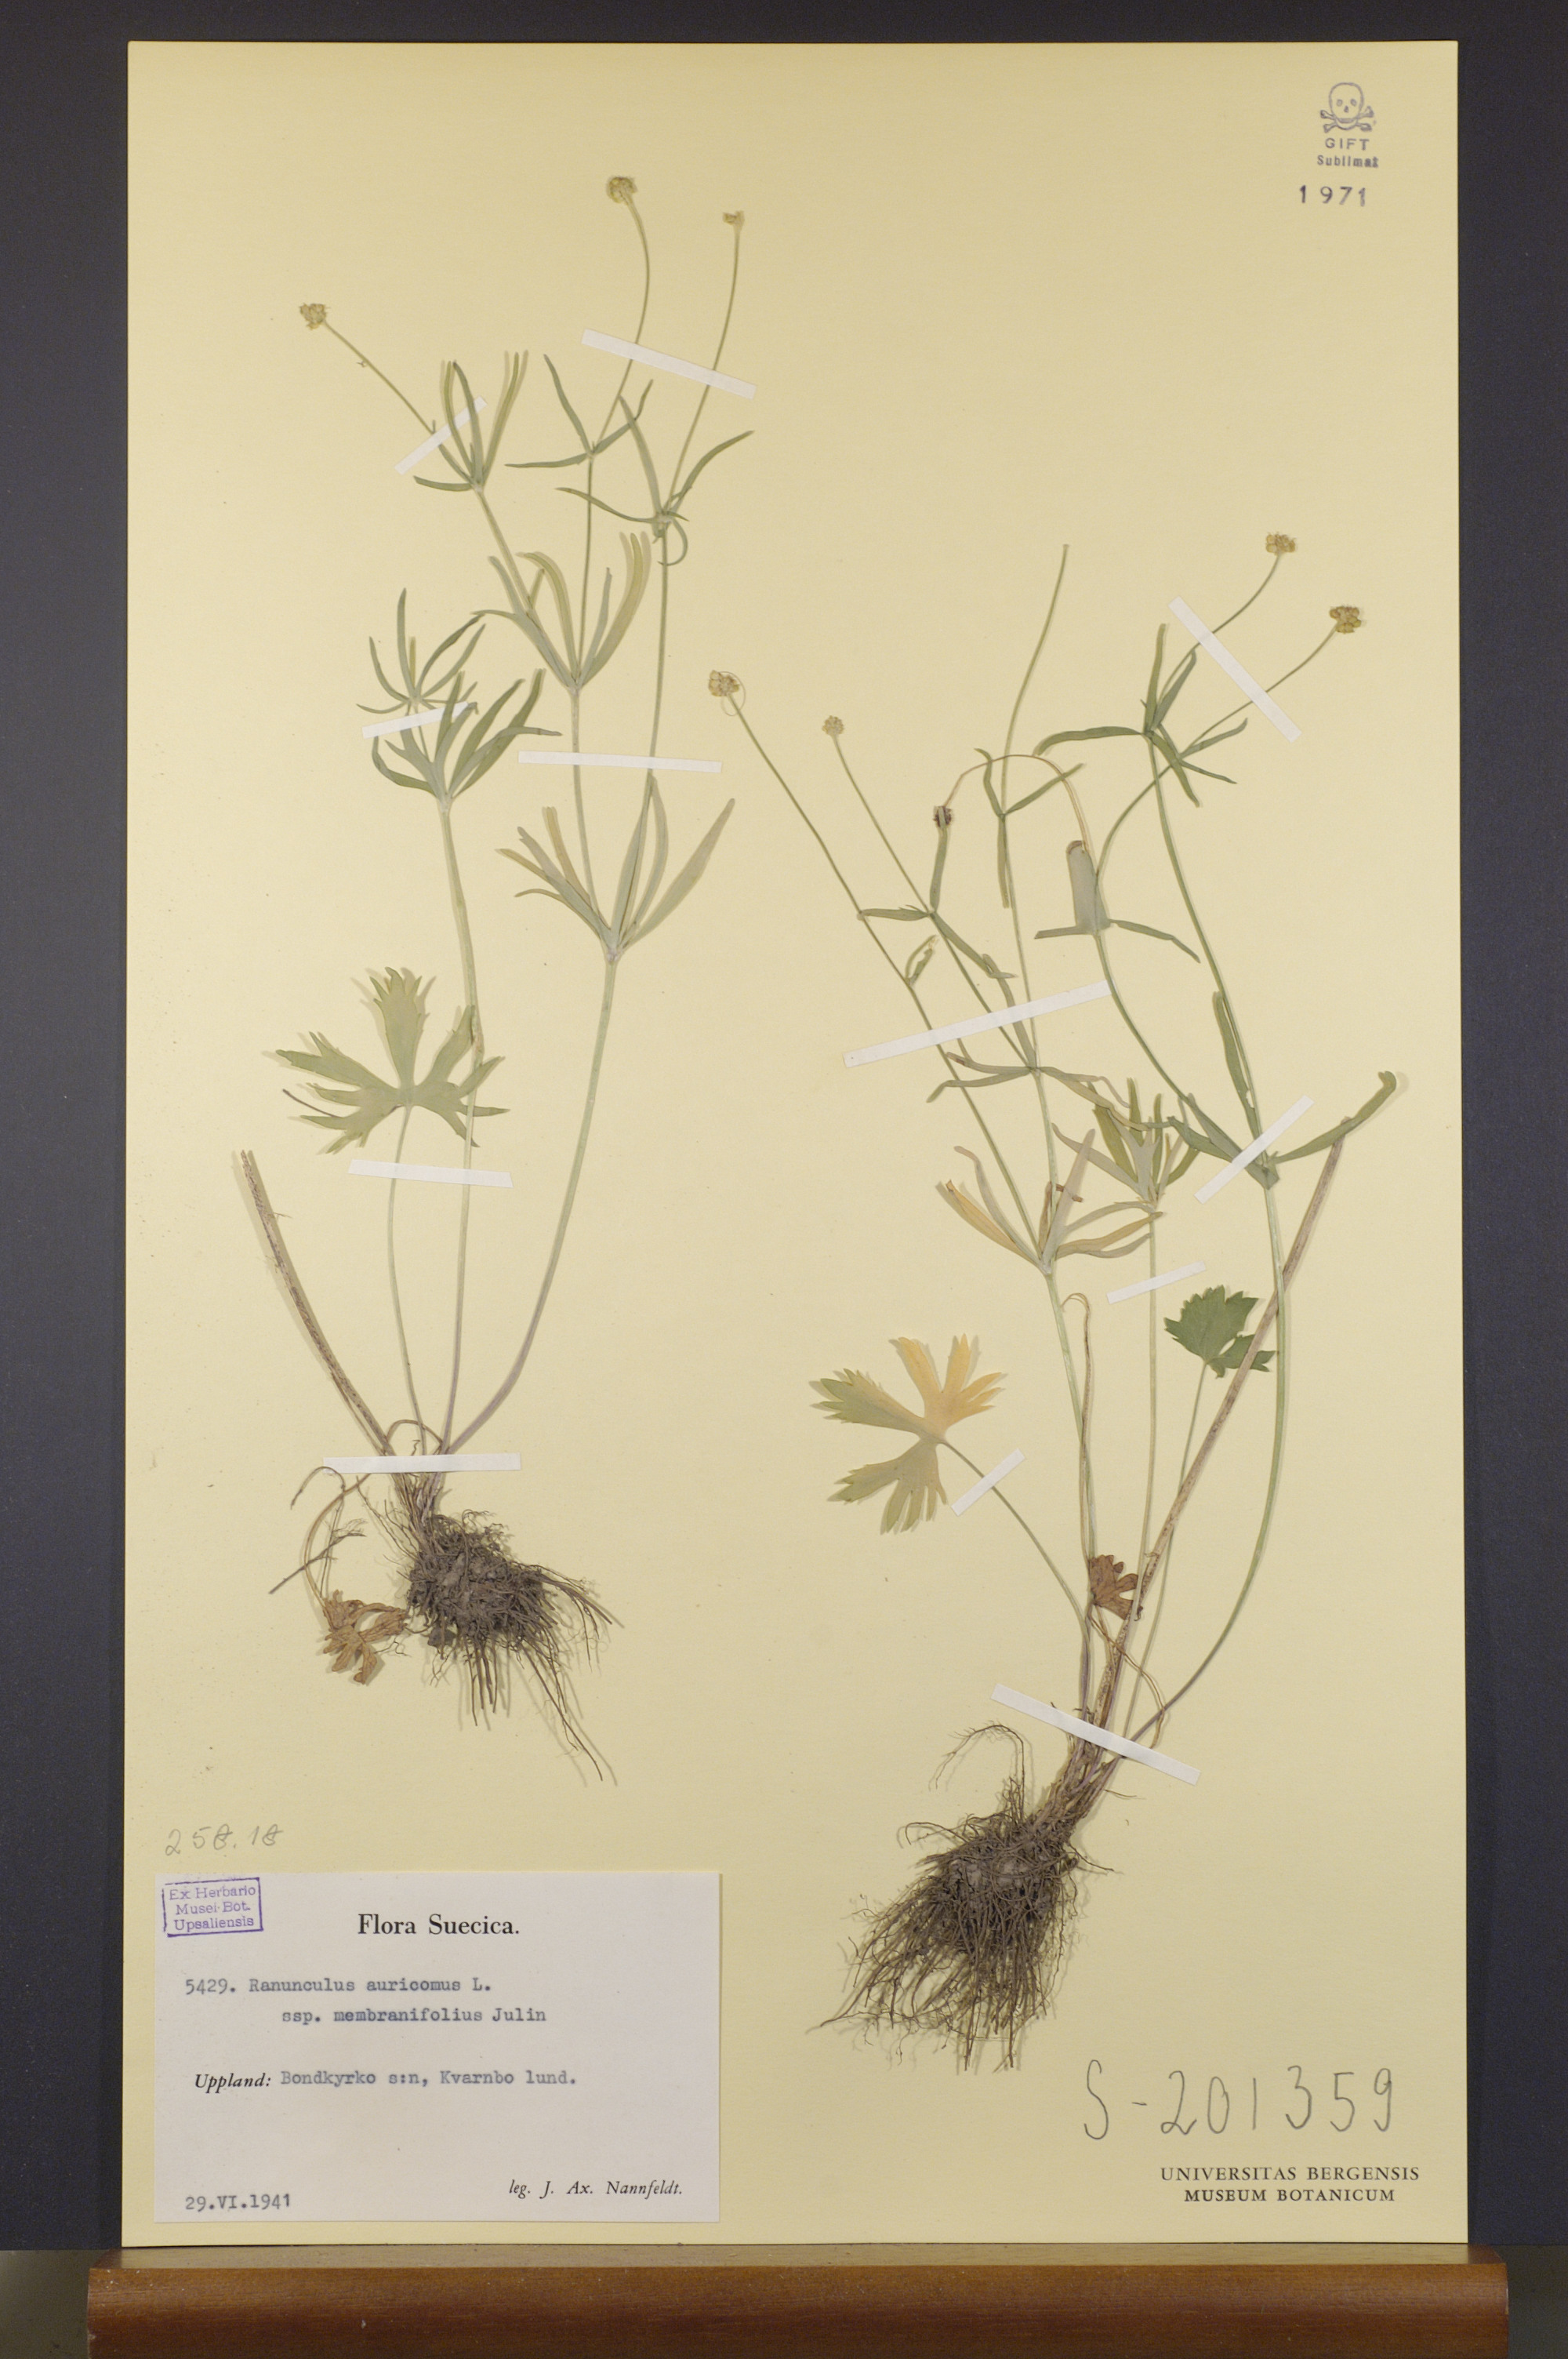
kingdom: Plantae
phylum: Tracheophyta
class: Magnoliopsida
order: Ranunculales
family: Ranunculaceae
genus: Ranunculus
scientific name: Ranunculus pergamentaceus
